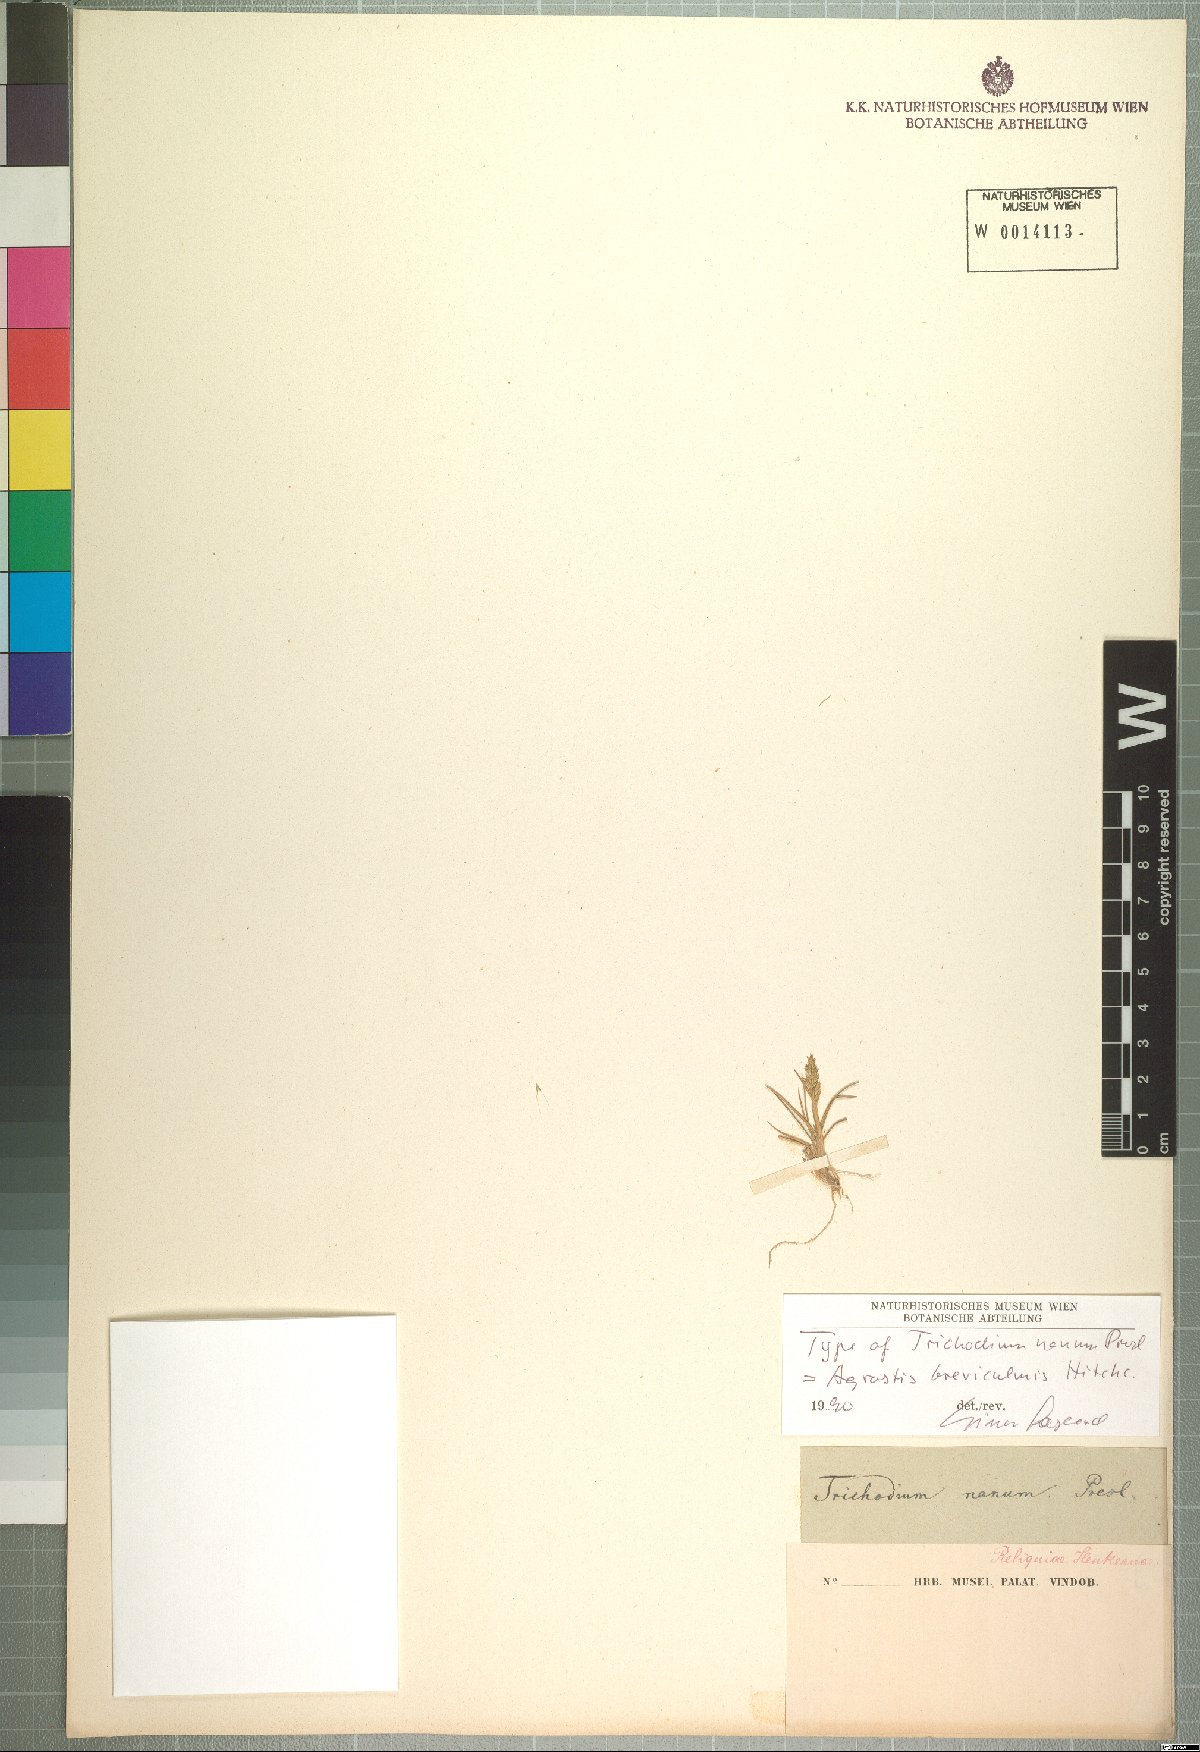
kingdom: Plantae
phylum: Tracheophyta
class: Liliopsida
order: Poales
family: Poaceae
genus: Agrostis
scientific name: Agrostis breviculmis
